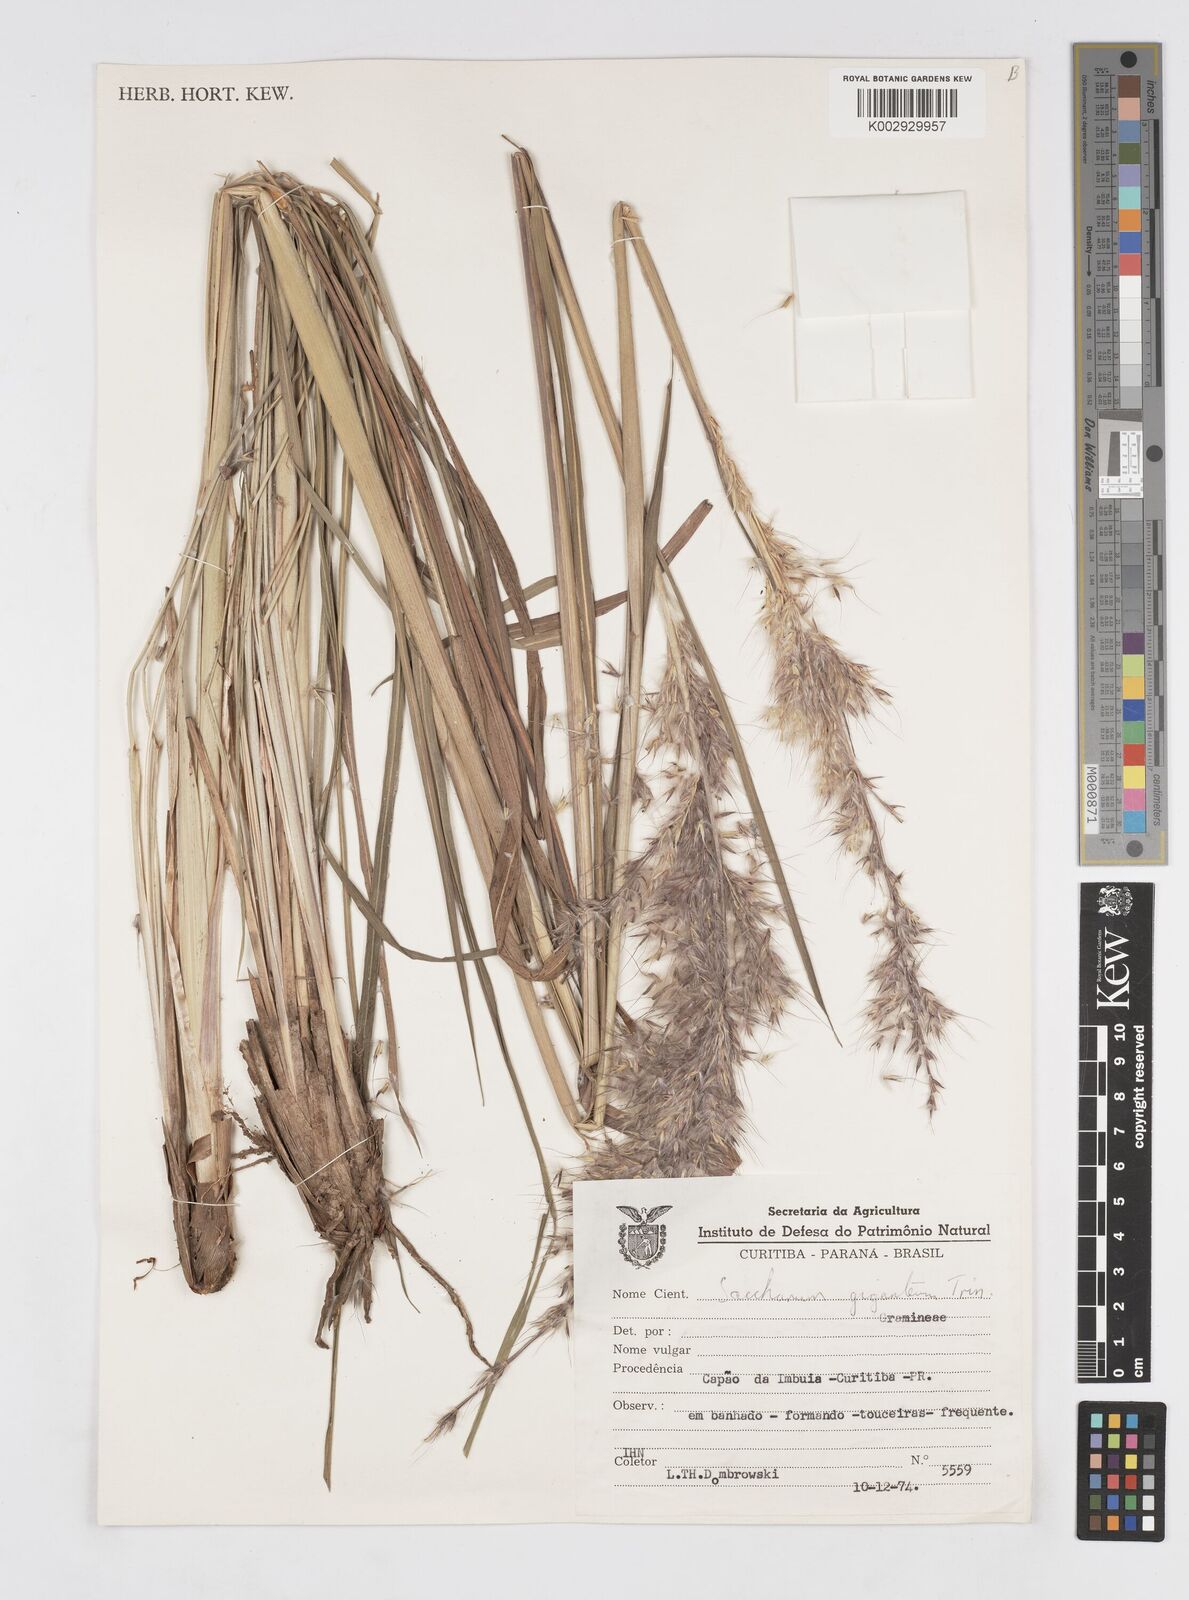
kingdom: Plantae
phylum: Tracheophyta
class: Liliopsida
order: Poales
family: Poaceae
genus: Saccharum
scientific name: Saccharum angustifolium
